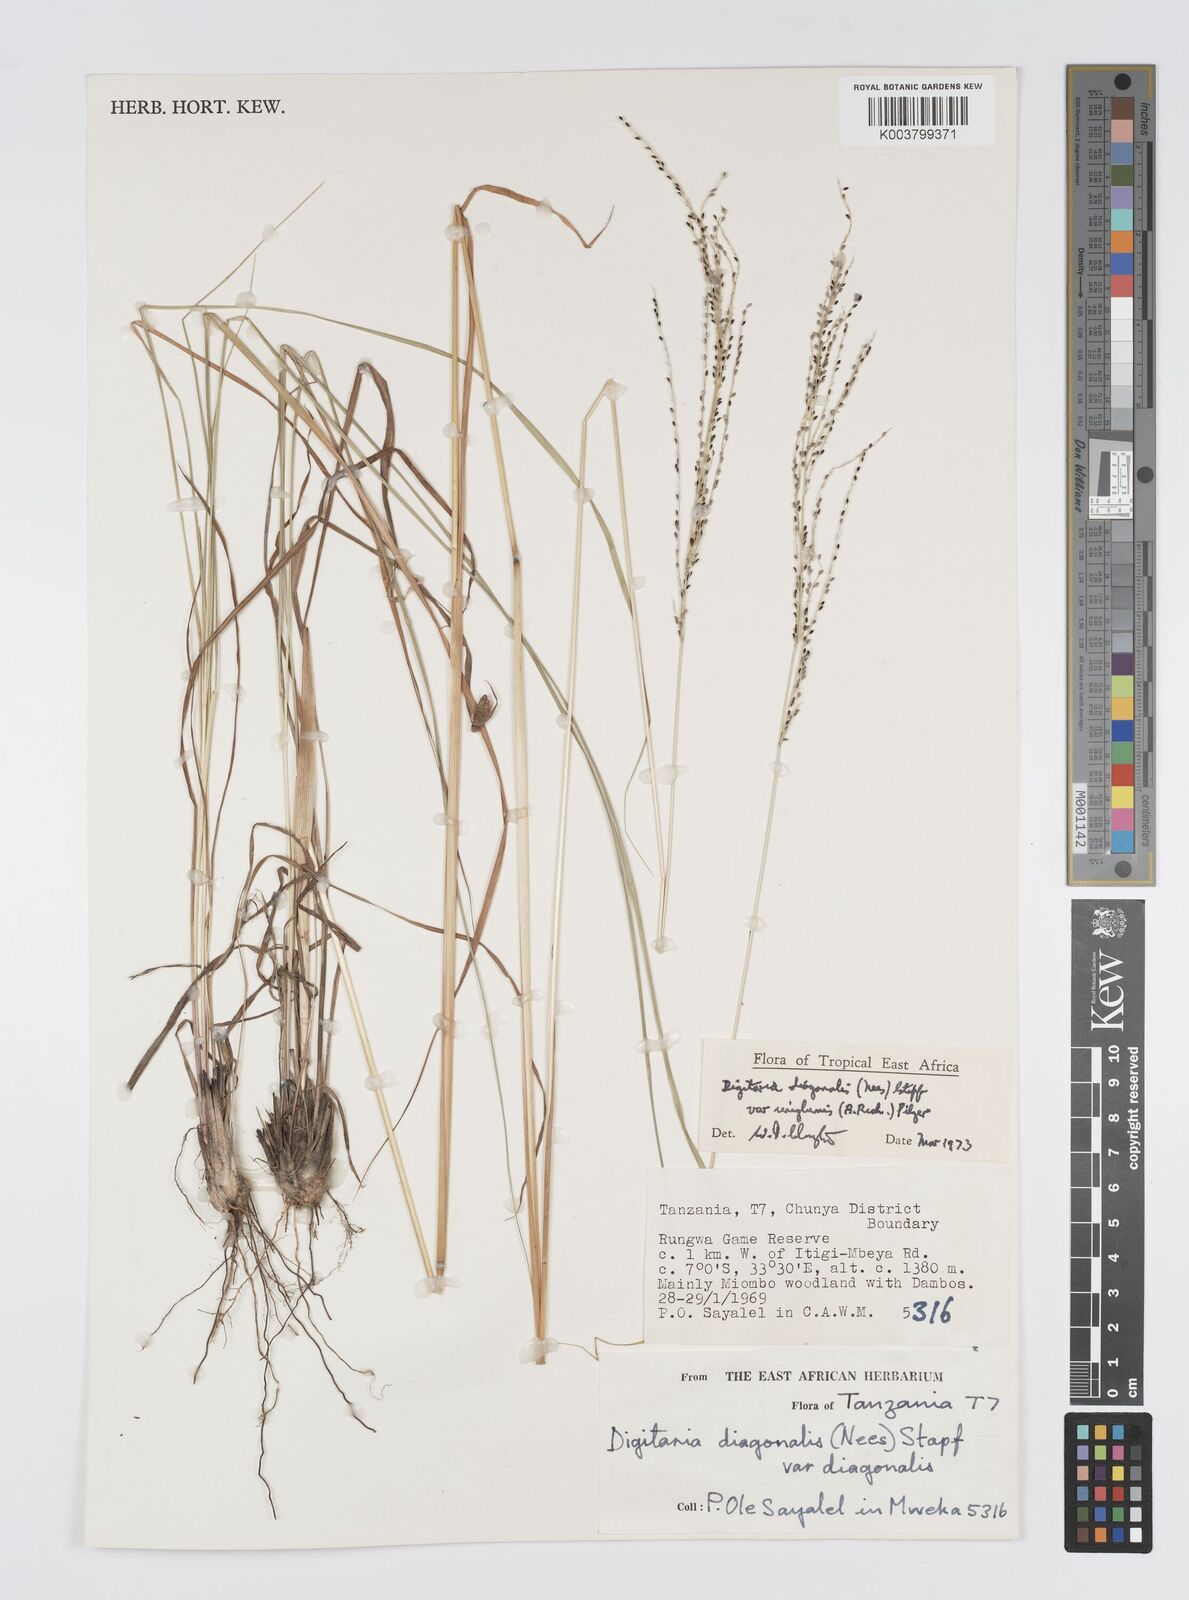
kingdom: Plantae
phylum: Tracheophyta
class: Liliopsida
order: Poales
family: Poaceae
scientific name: Poaceae
